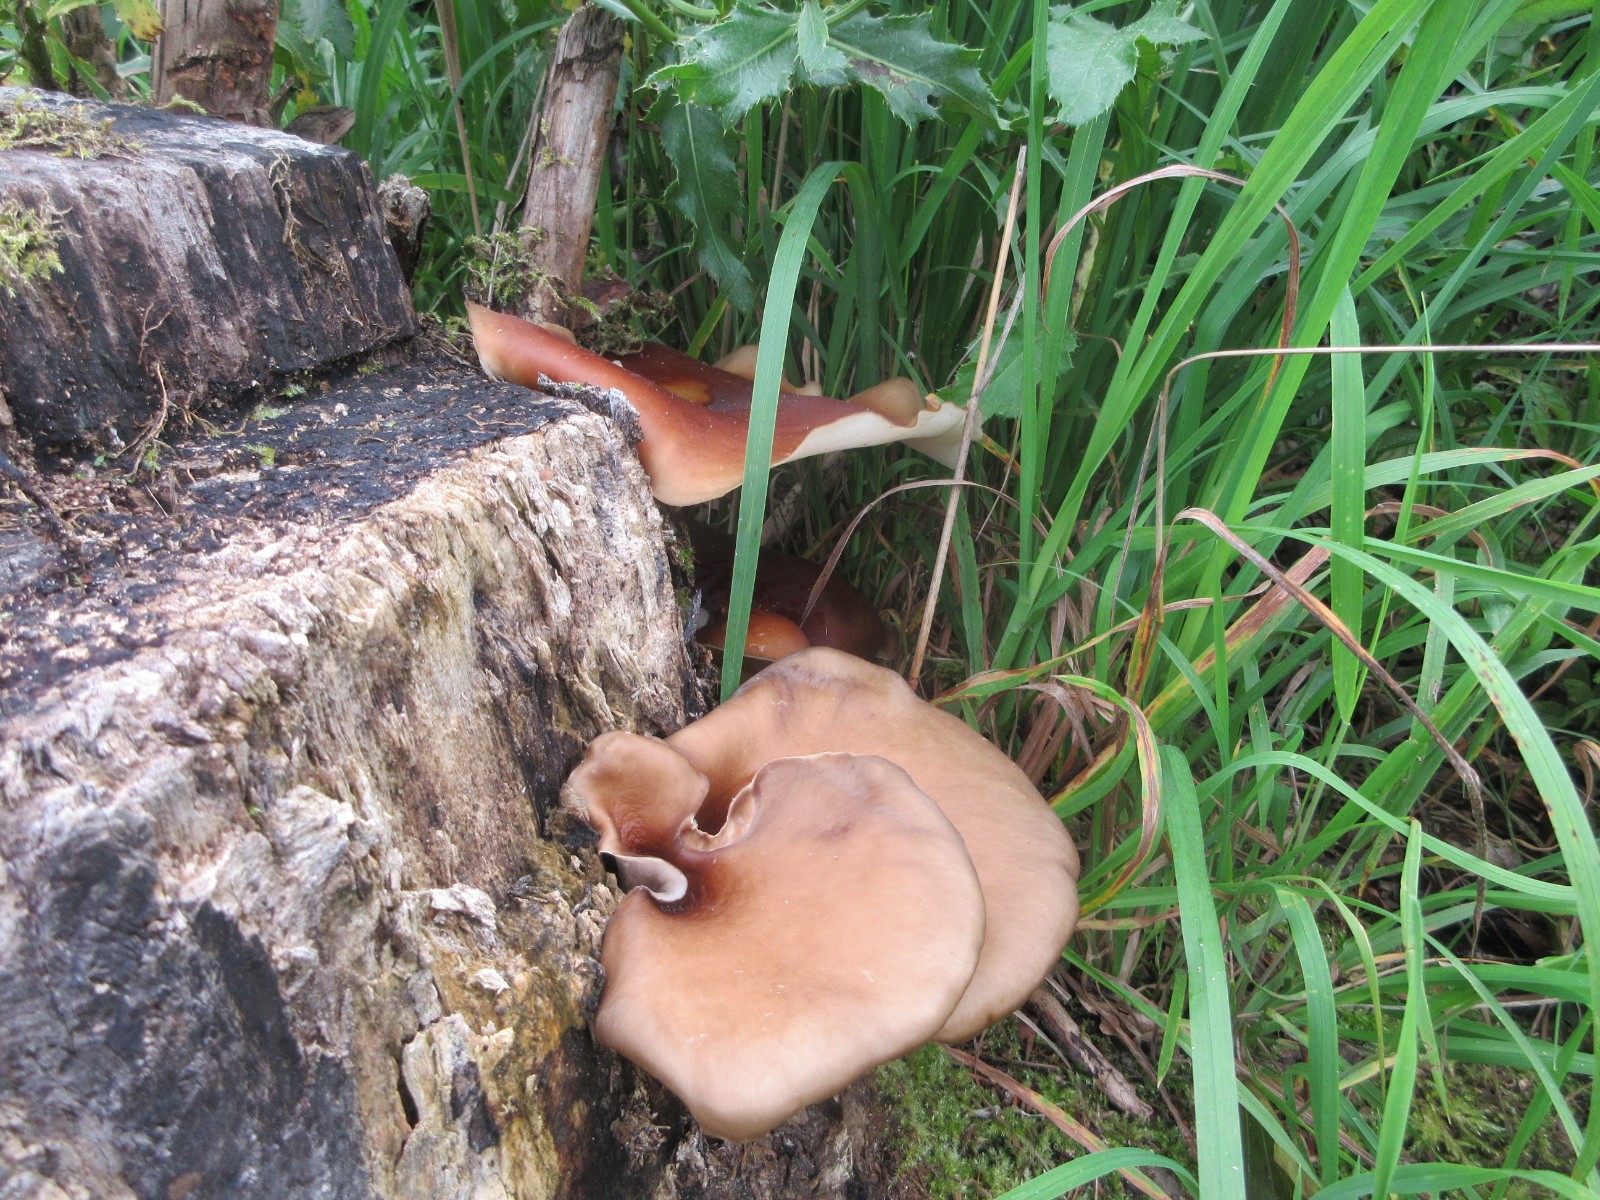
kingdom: Fungi
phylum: Basidiomycota
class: Agaricomycetes
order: Polyporales
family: Polyporaceae
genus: Picipes
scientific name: Picipes badius
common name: kastaniebrun stilkporesvamp
